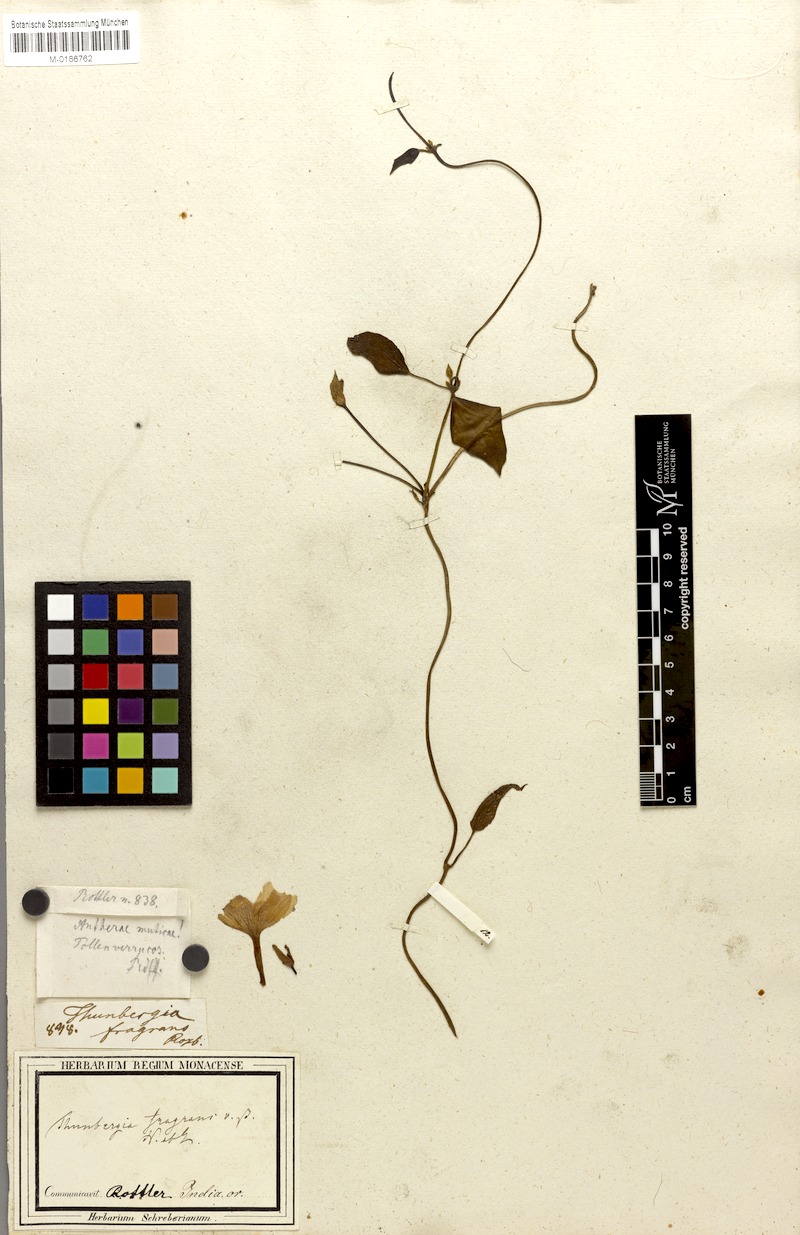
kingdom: Plantae
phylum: Tracheophyta
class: Magnoliopsida
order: Lamiales
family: Acanthaceae
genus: Thunbergia
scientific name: Thunbergia fragrans
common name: Whitelady
